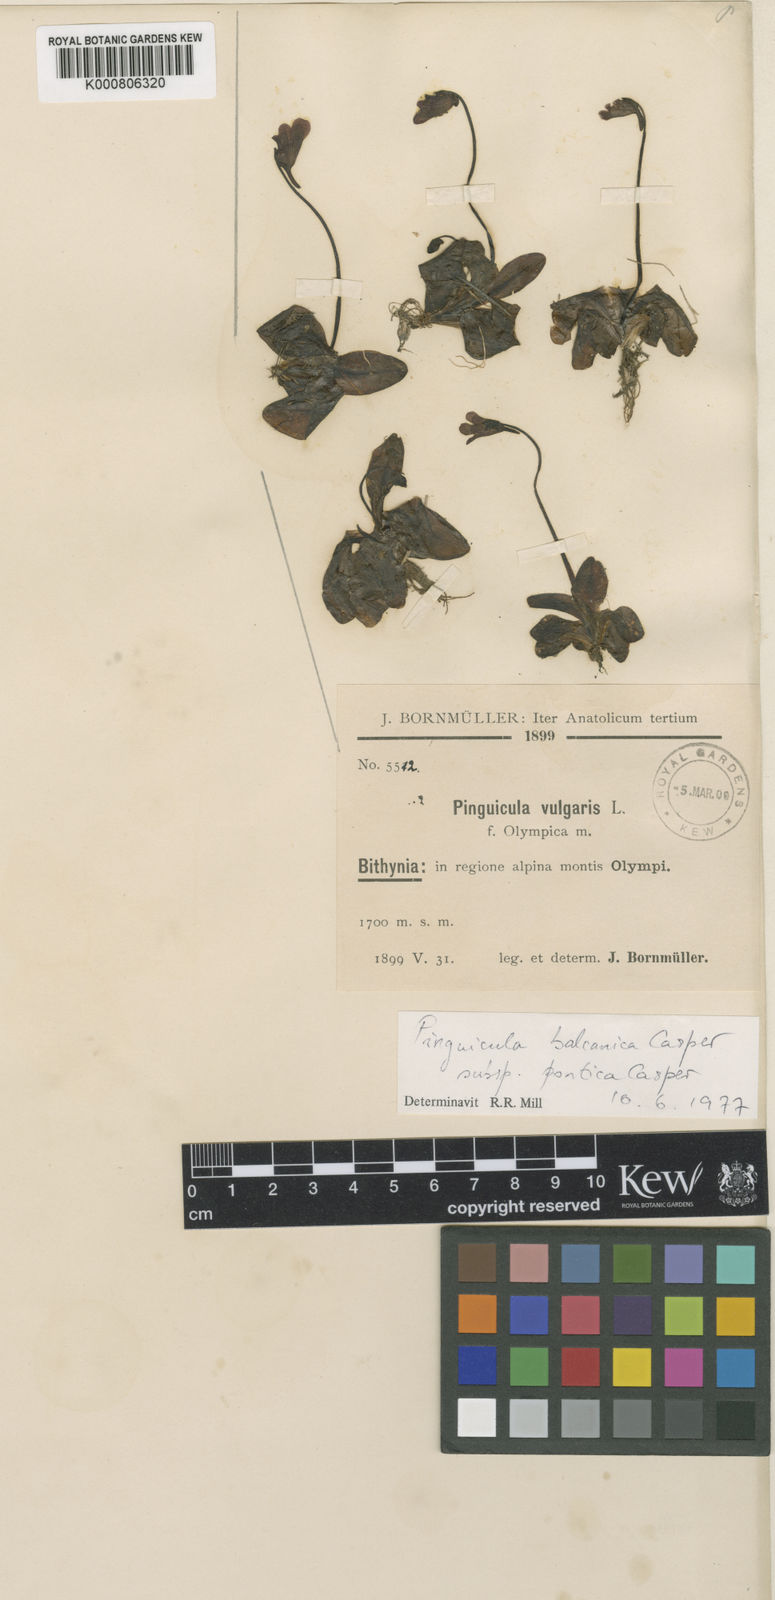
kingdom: Plantae
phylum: Tracheophyta
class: Magnoliopsida
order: Lamiales
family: Lentibulariaceae
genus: Pinguicula
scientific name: Pinguicula balcanica
